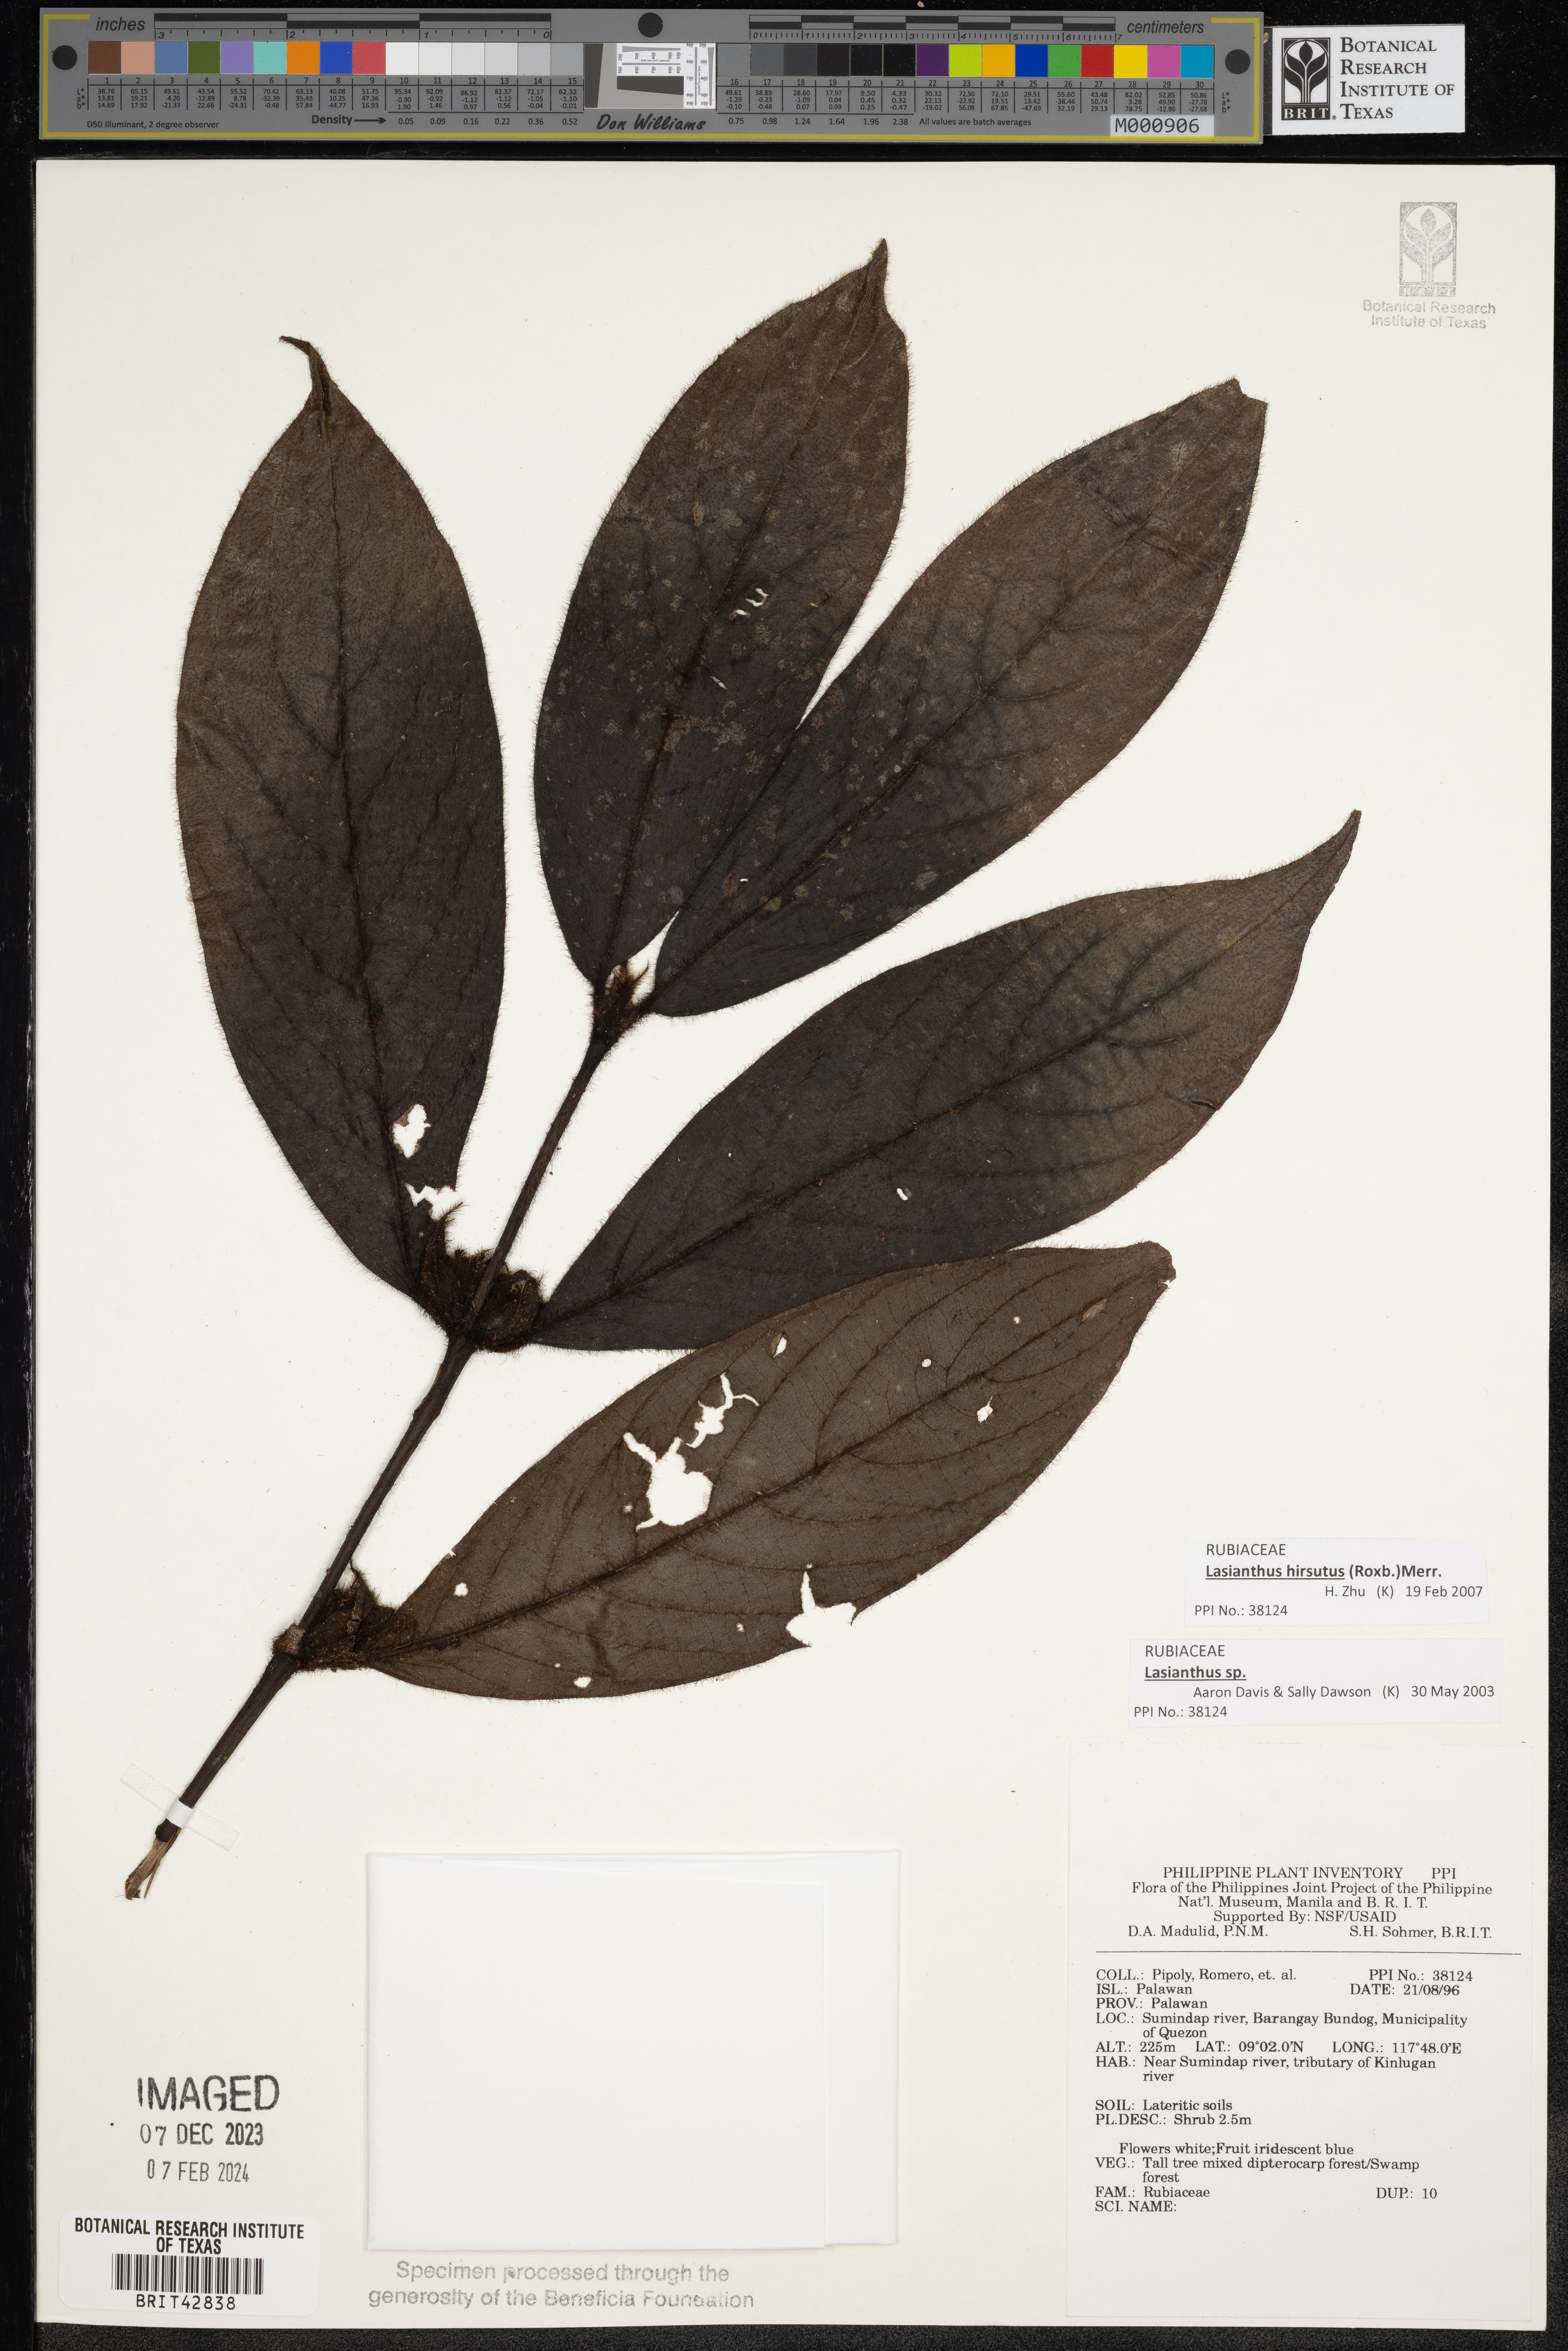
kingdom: Plantae
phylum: Tracheophyta
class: Magnoliopsida
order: Gentianales
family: Rubiaceae
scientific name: Rubiaceae
